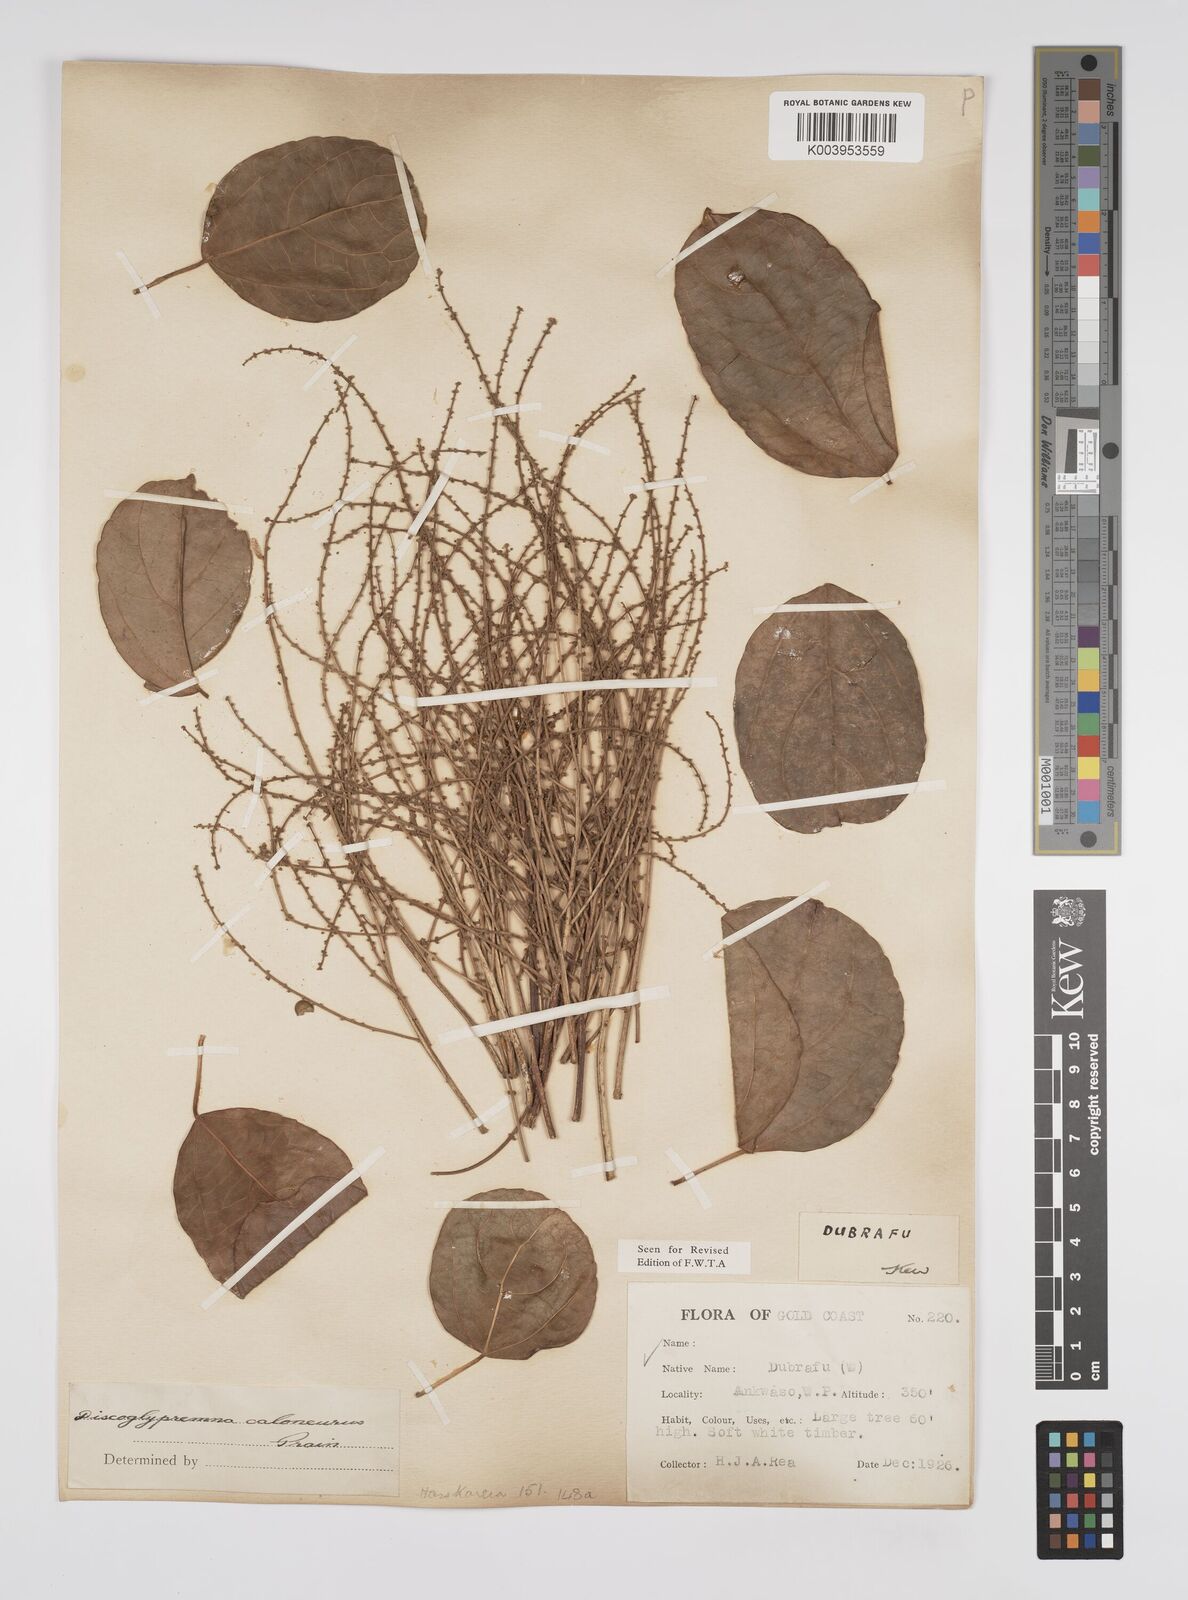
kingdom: Plantae
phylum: Tracheophyta
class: Magnoliopsida
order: Malpighiales
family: Euphorbiaceae
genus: Discoglypremna
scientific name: Discoglypremna caloneura
